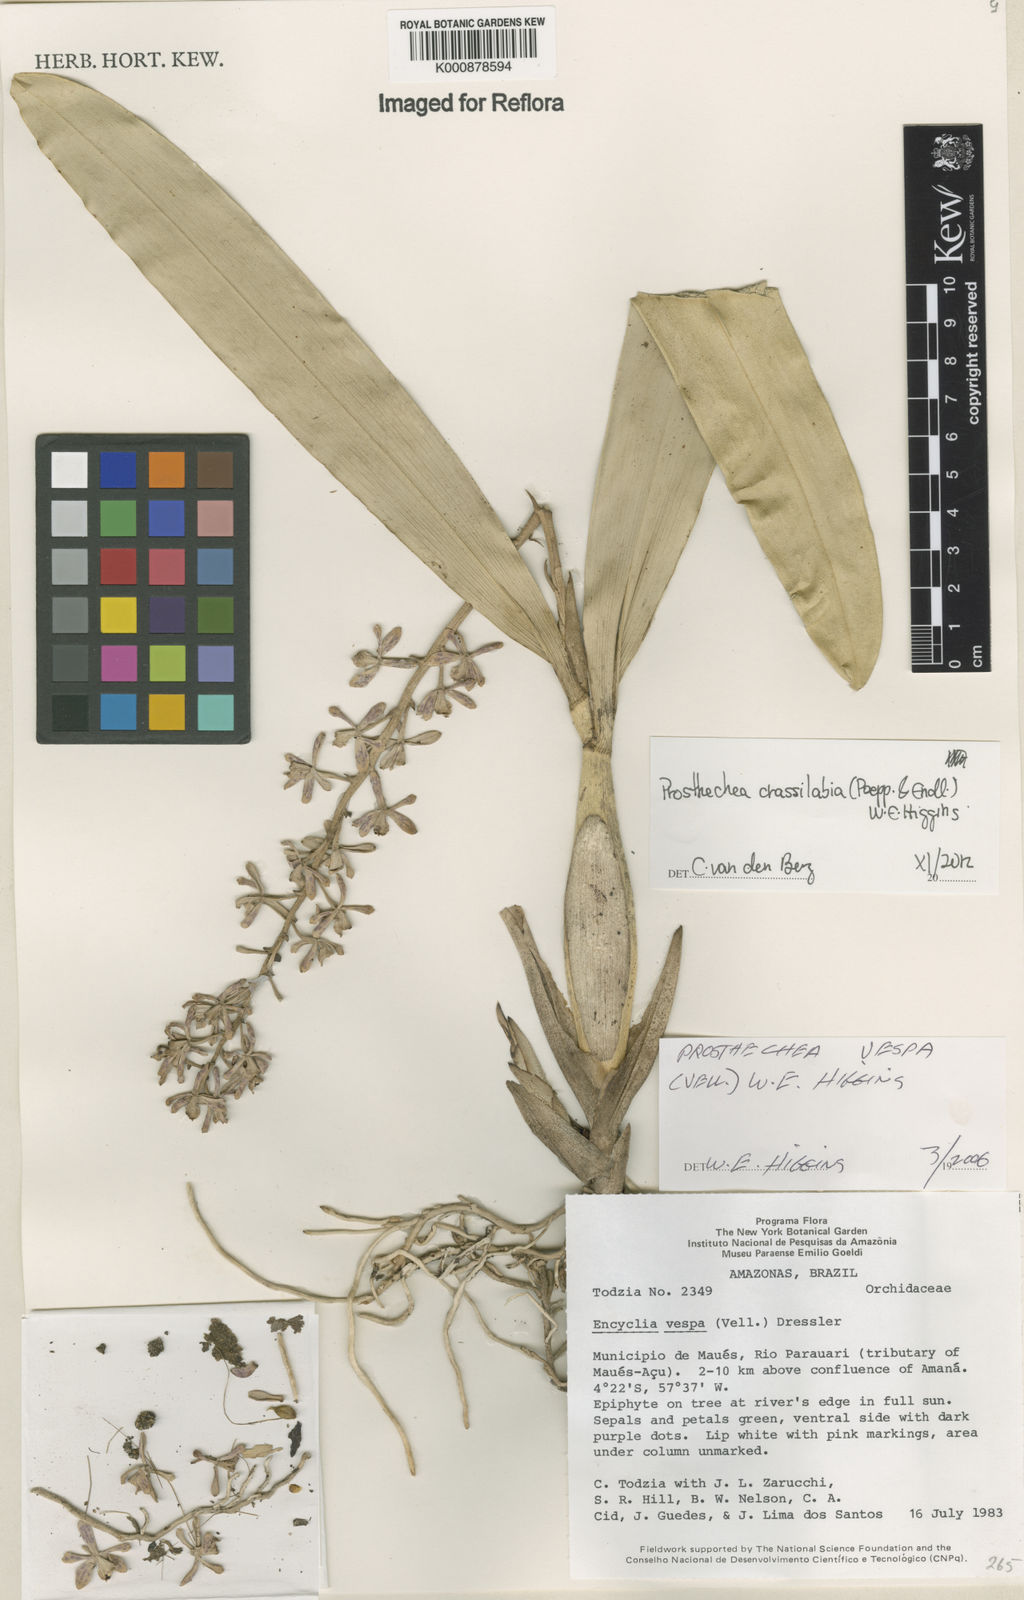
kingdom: Plantae
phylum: Tracheophyta
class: Liliopsida
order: Asparagales
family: Orchidaceae
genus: Prosthechea
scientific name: Prosthechea
